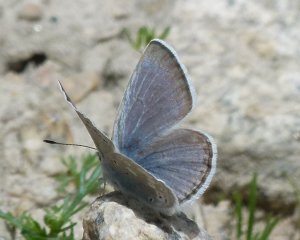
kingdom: Animalia
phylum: Arthropoda
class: Insecta
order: Lepidoptera
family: Lycaenidae
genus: Icaricia
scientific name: Icaricia icarioides
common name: Boisduval's Blue
